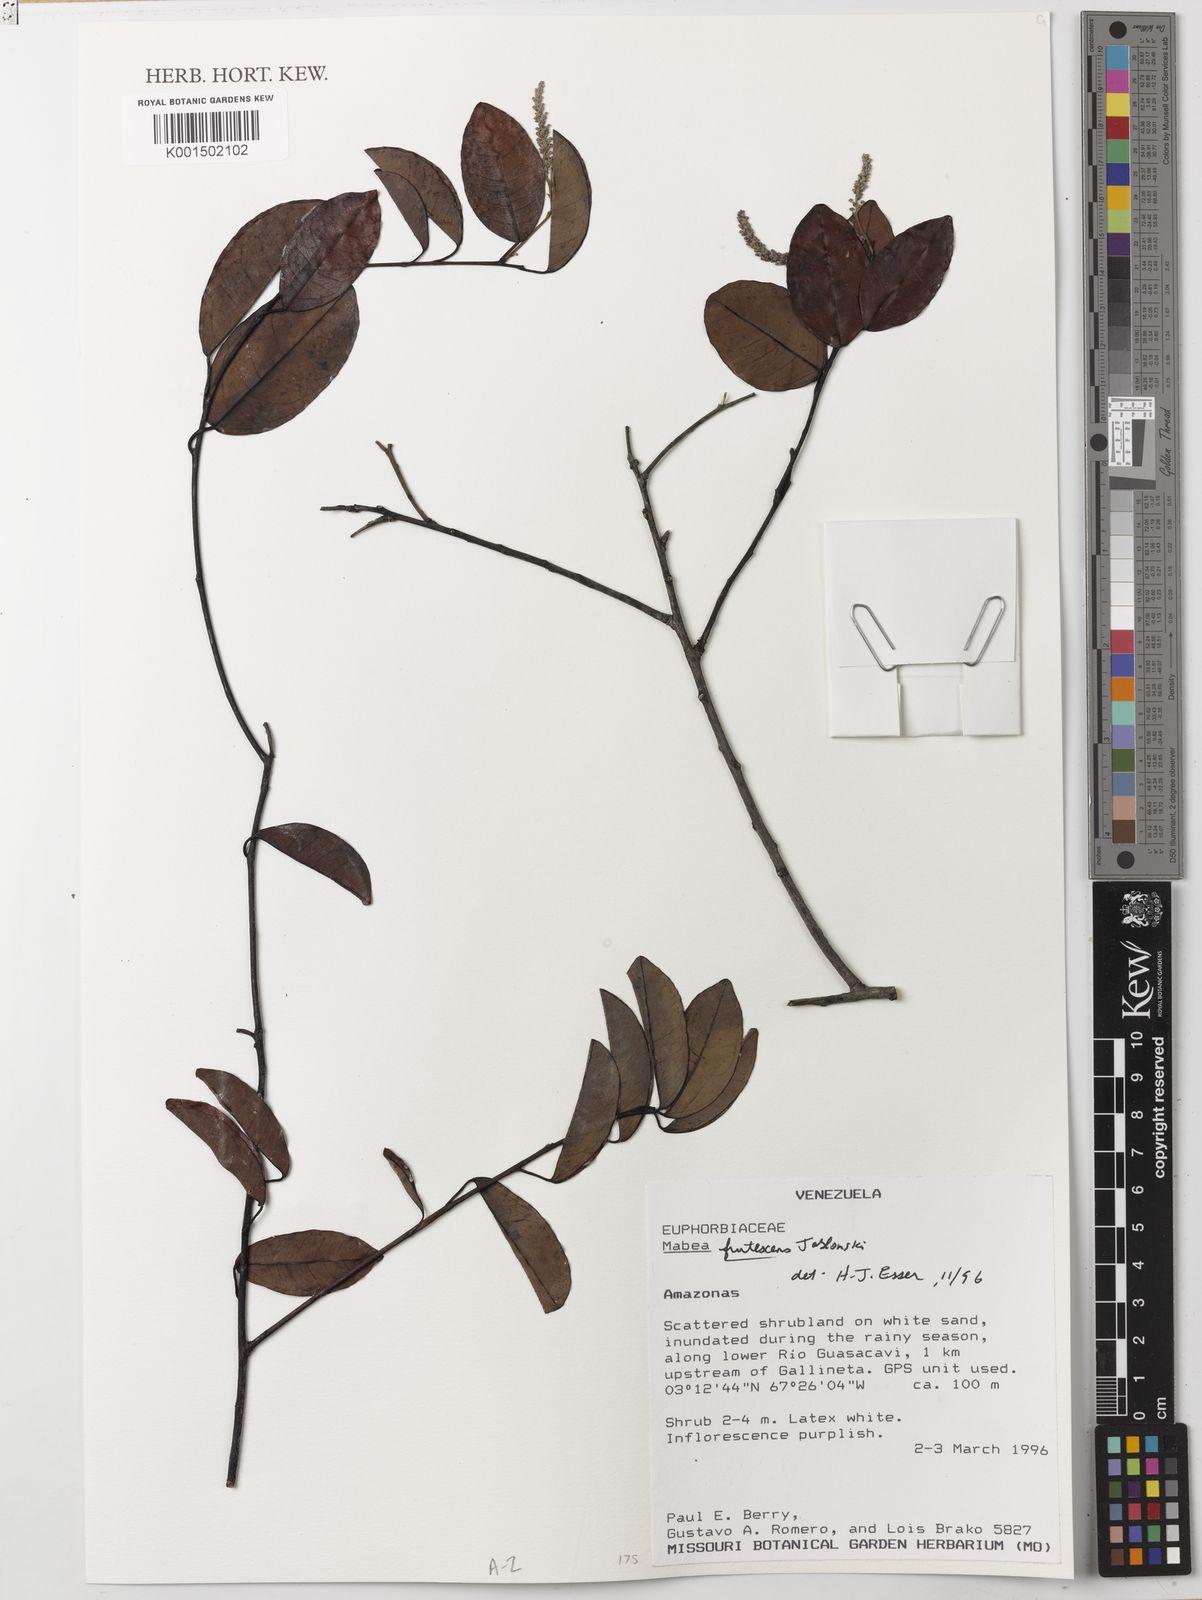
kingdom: Plantae
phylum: Tracheophyta
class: Magnoliopsida
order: Malpighiales
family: Euphorbiaceae
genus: Mabea
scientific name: Mabea frutescens
